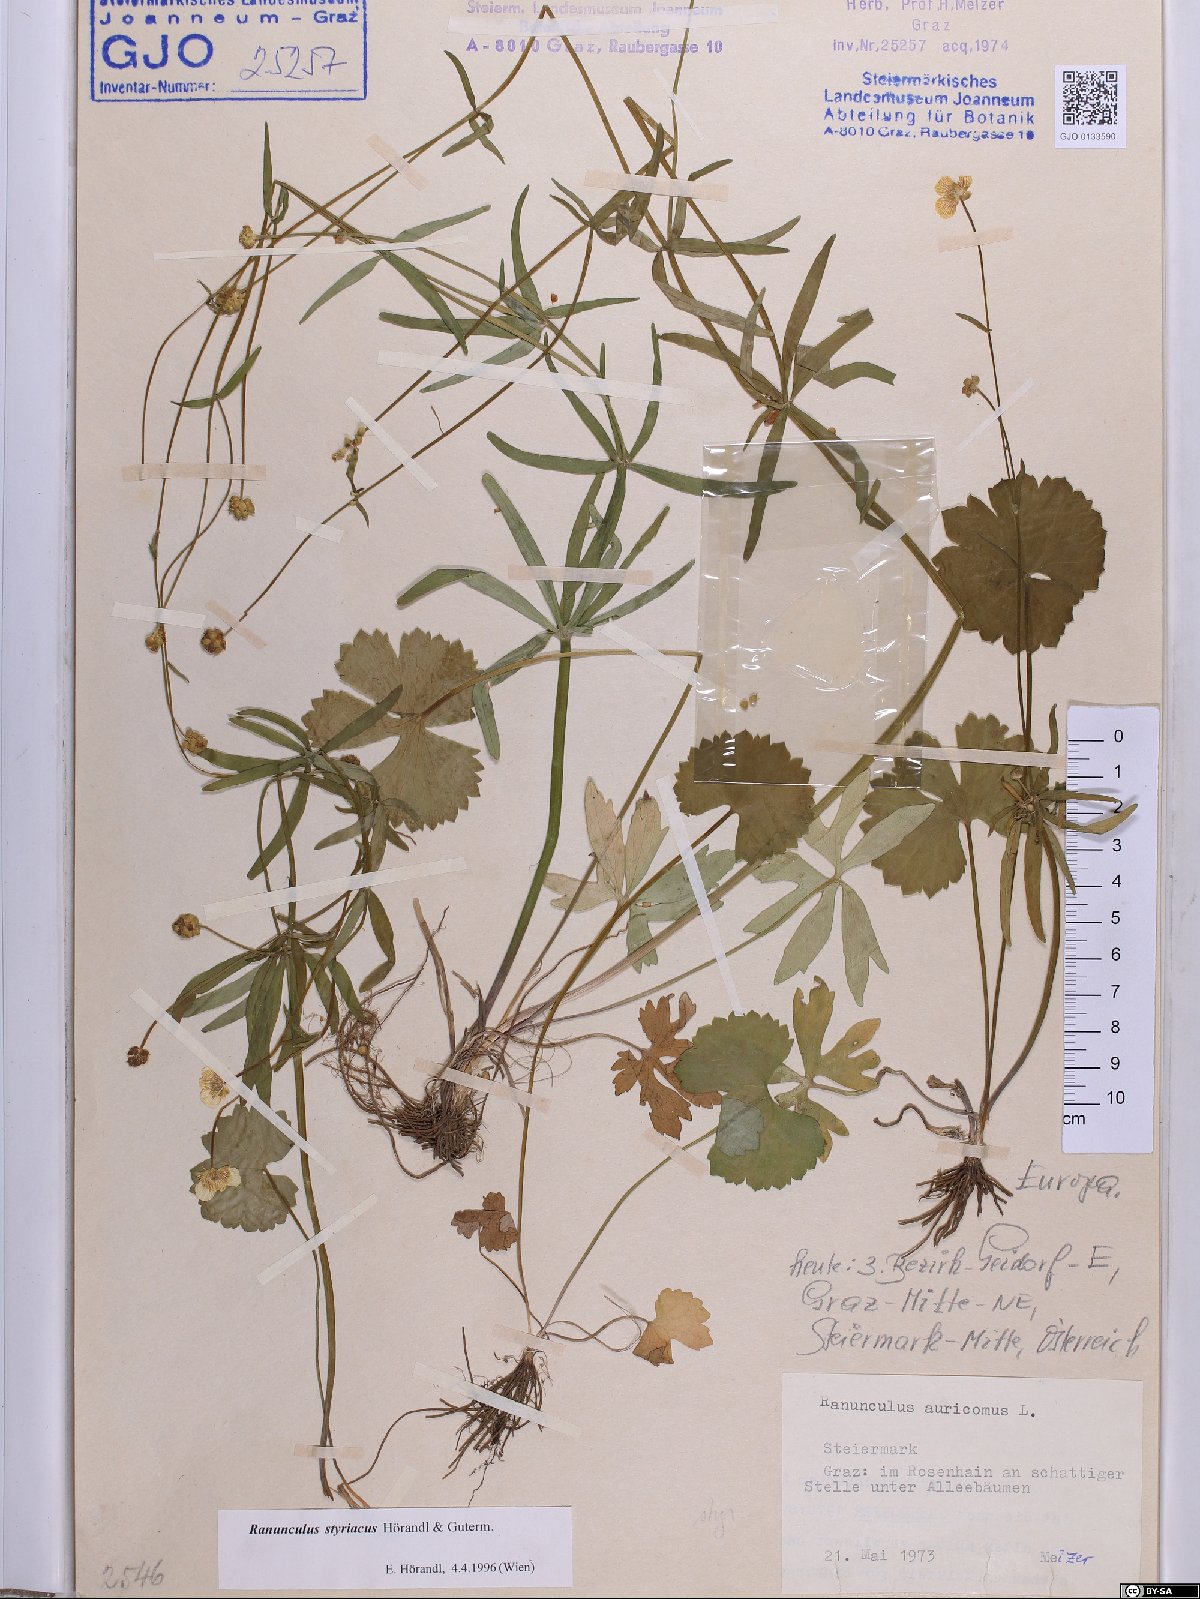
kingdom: Plantae
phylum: Tracheophyta
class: Magnoliopsida
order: Ranunculales
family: Ranunculaceae
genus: Ranunculus
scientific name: Ranunculus styriacus
